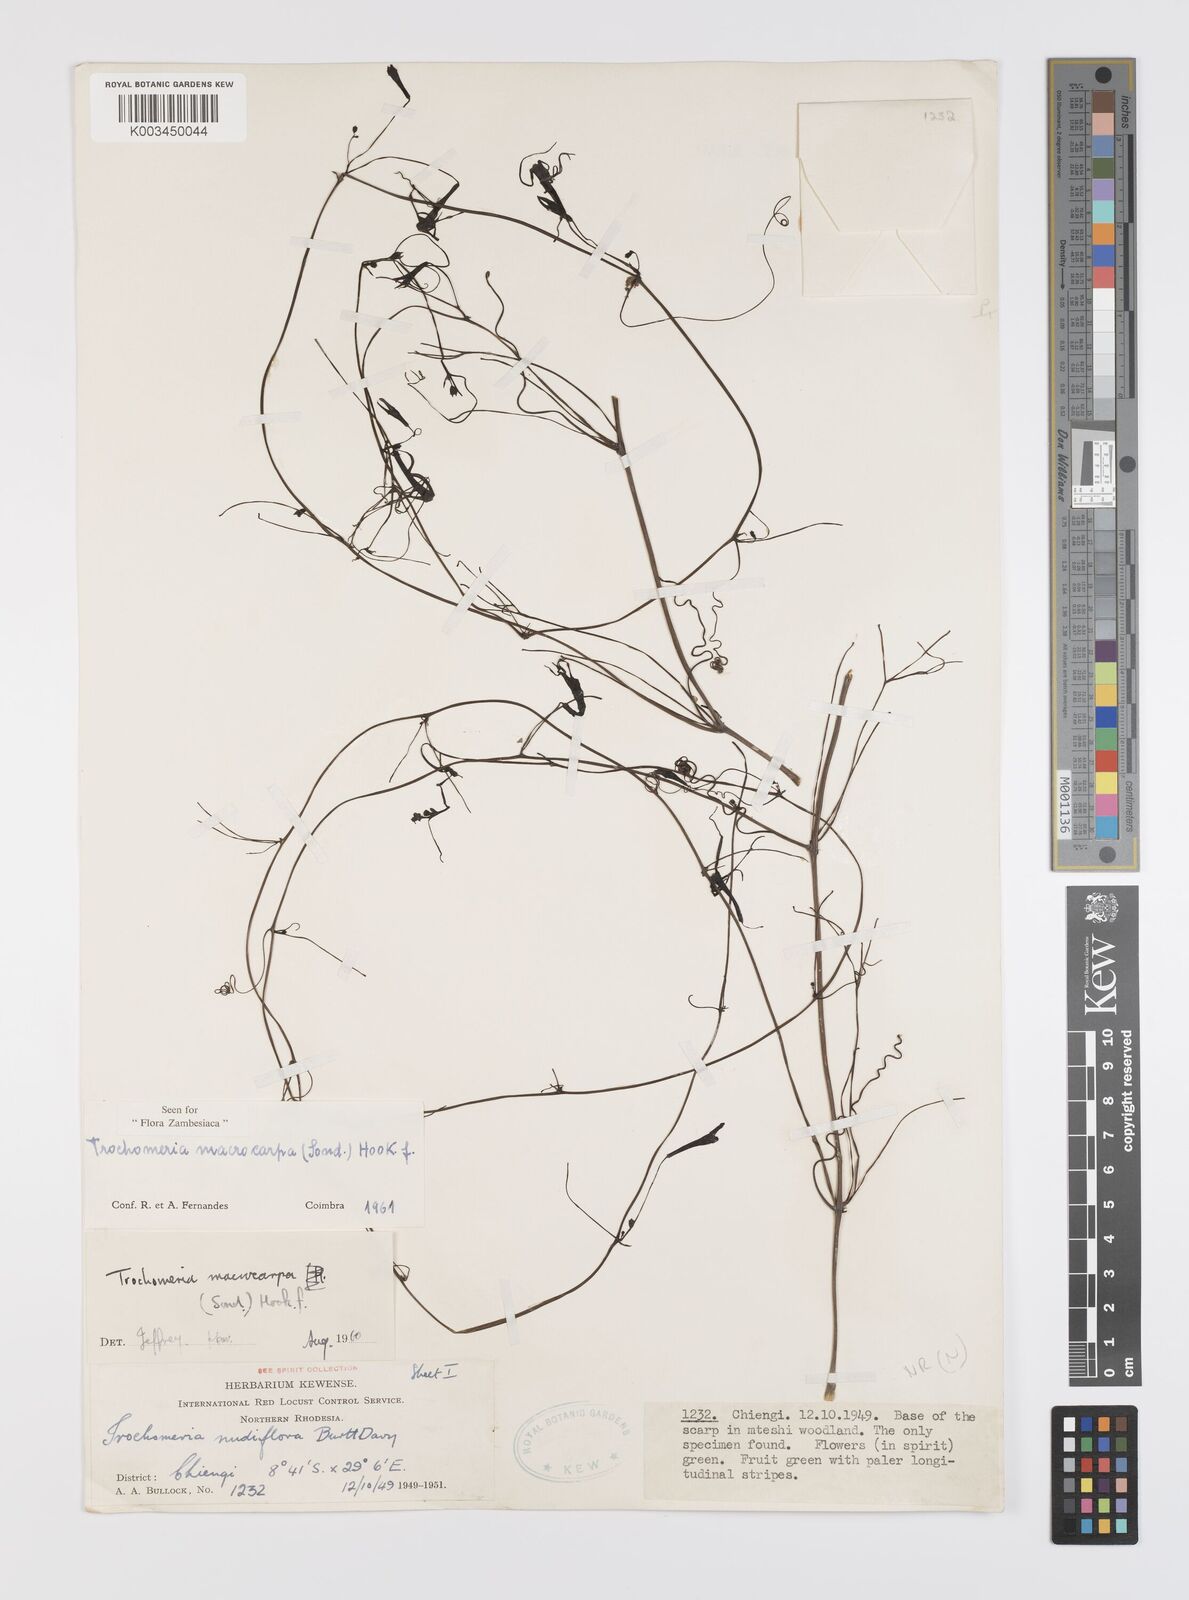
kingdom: Plantae
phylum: Tracheophyta
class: Magnoliopsida
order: Cucurbitales
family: Cucurbitaceae
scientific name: Cucurbitaceae
